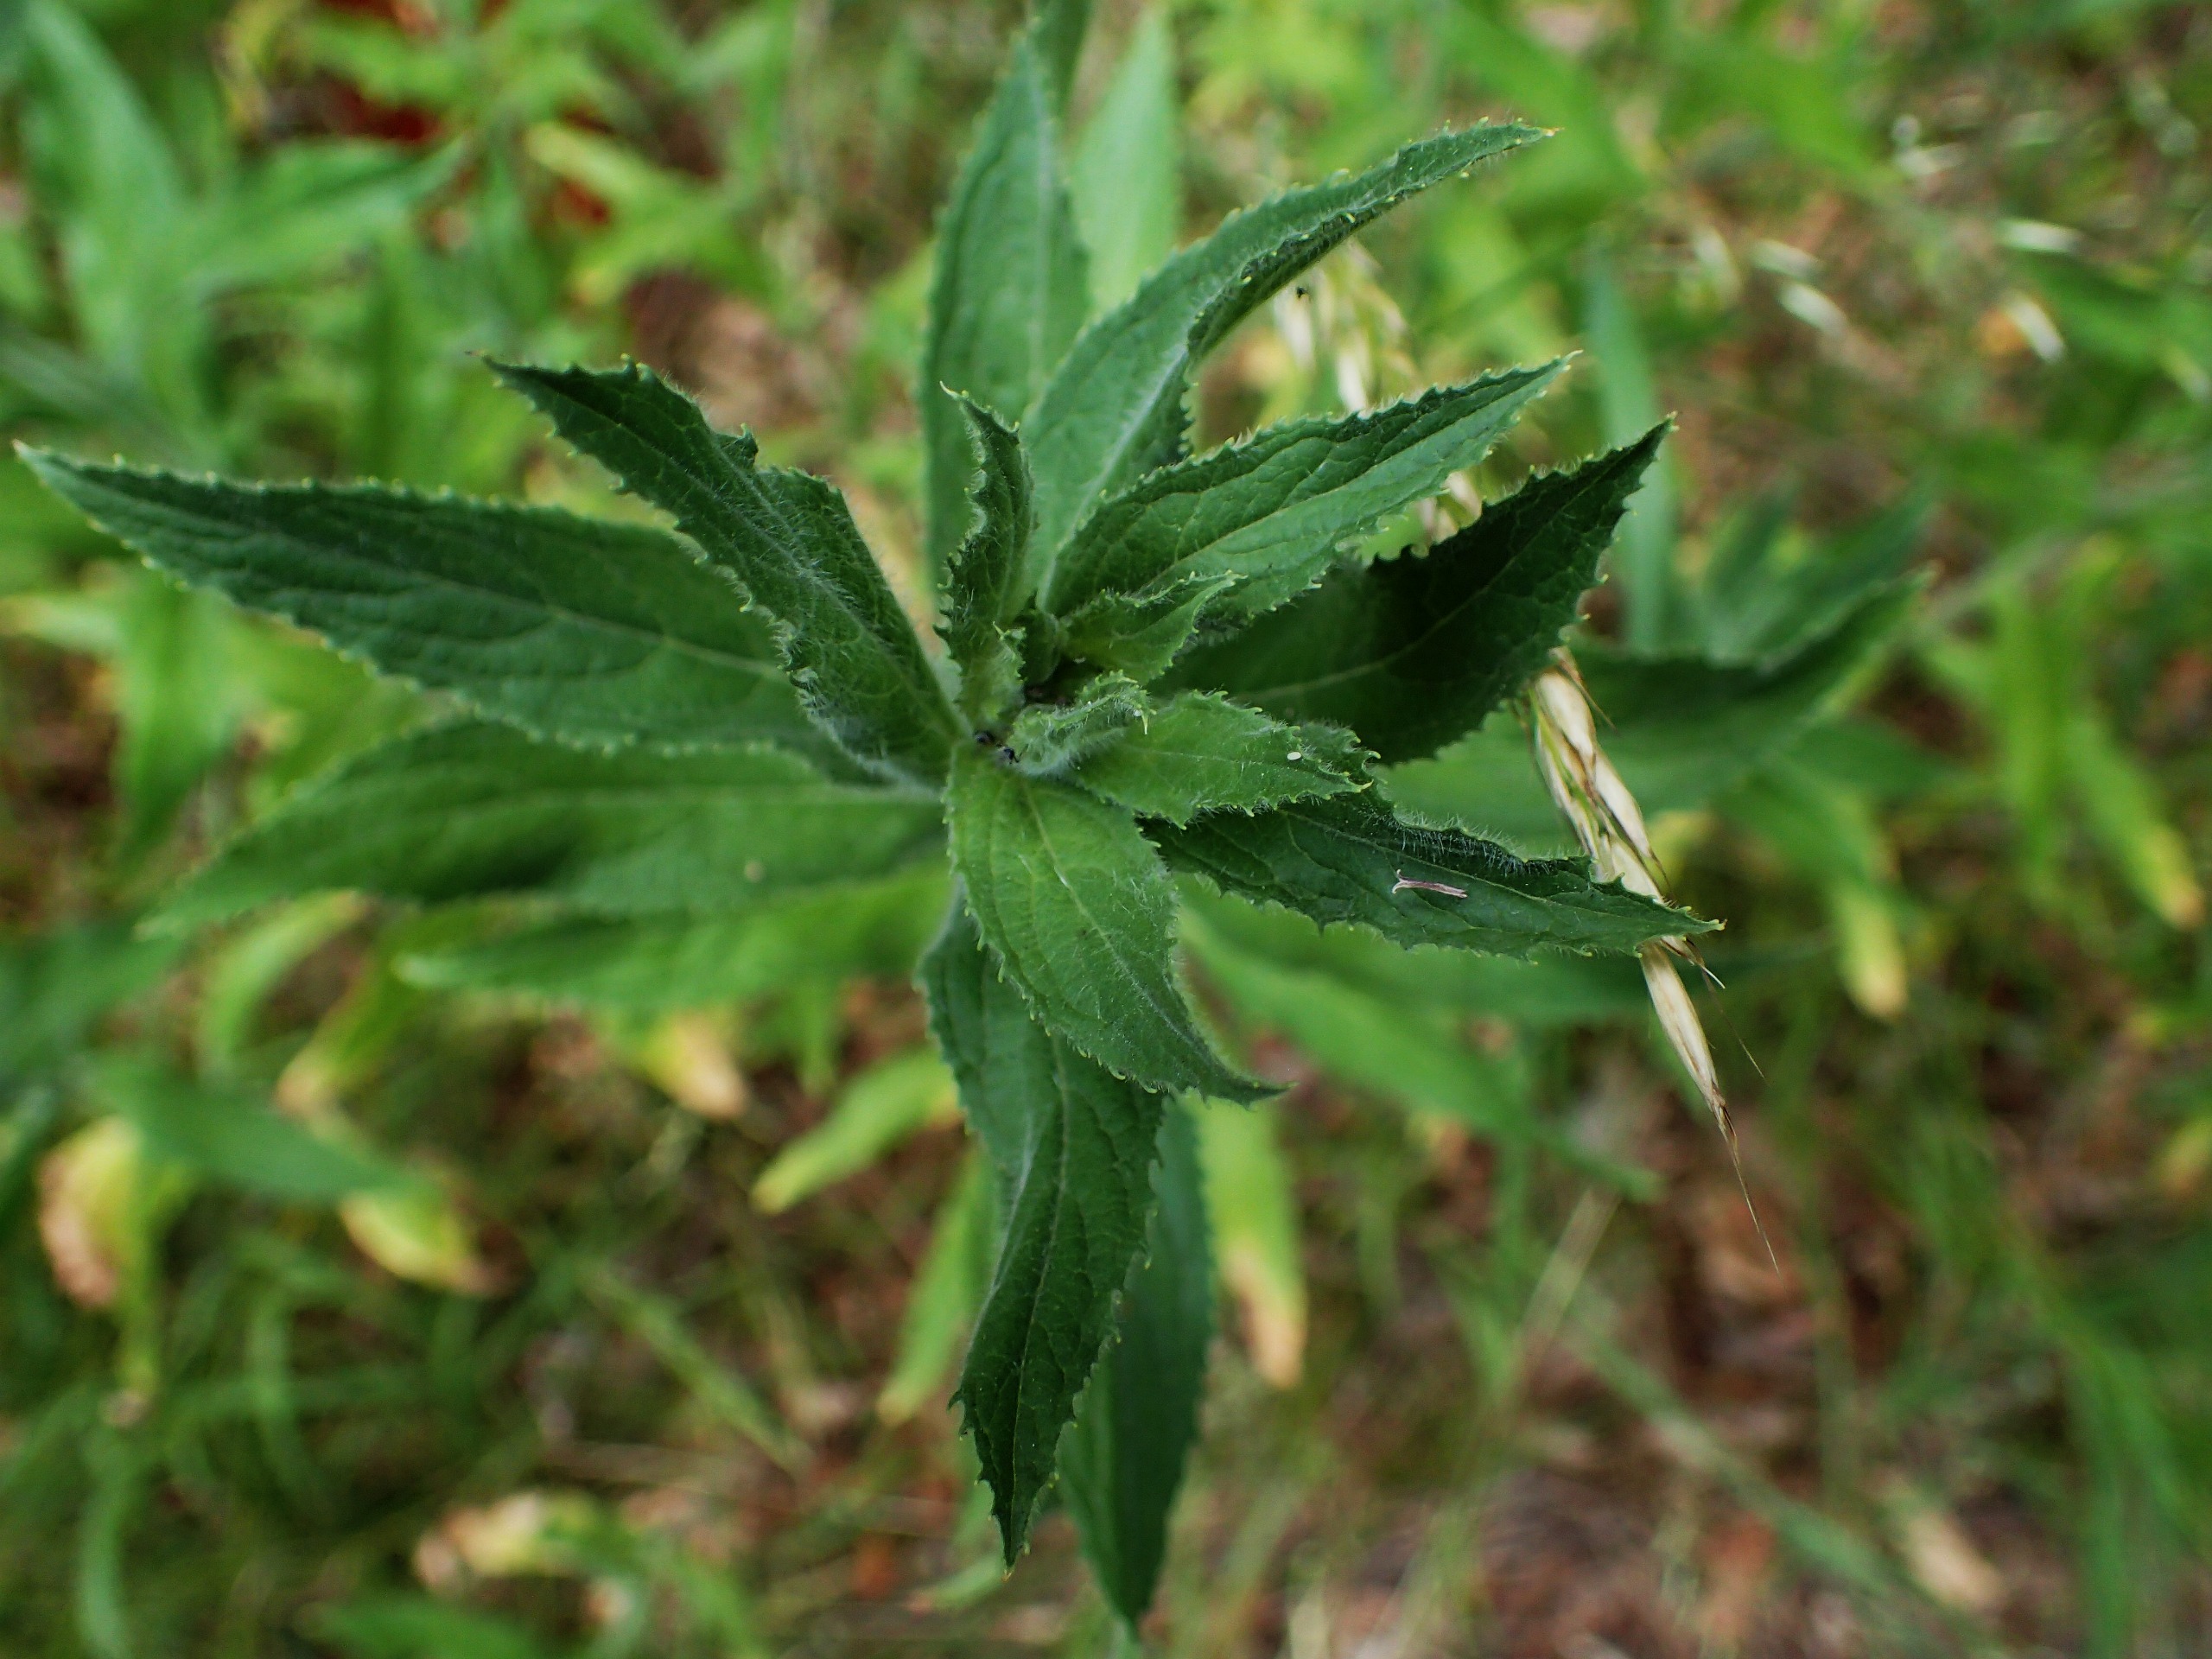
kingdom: Plantae
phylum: Tracheophyta
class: Magnoliopsida
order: Myrtales
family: Onagraceae
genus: Epilobium
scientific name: Epilobium hirsutum
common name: Lådden dueurt
